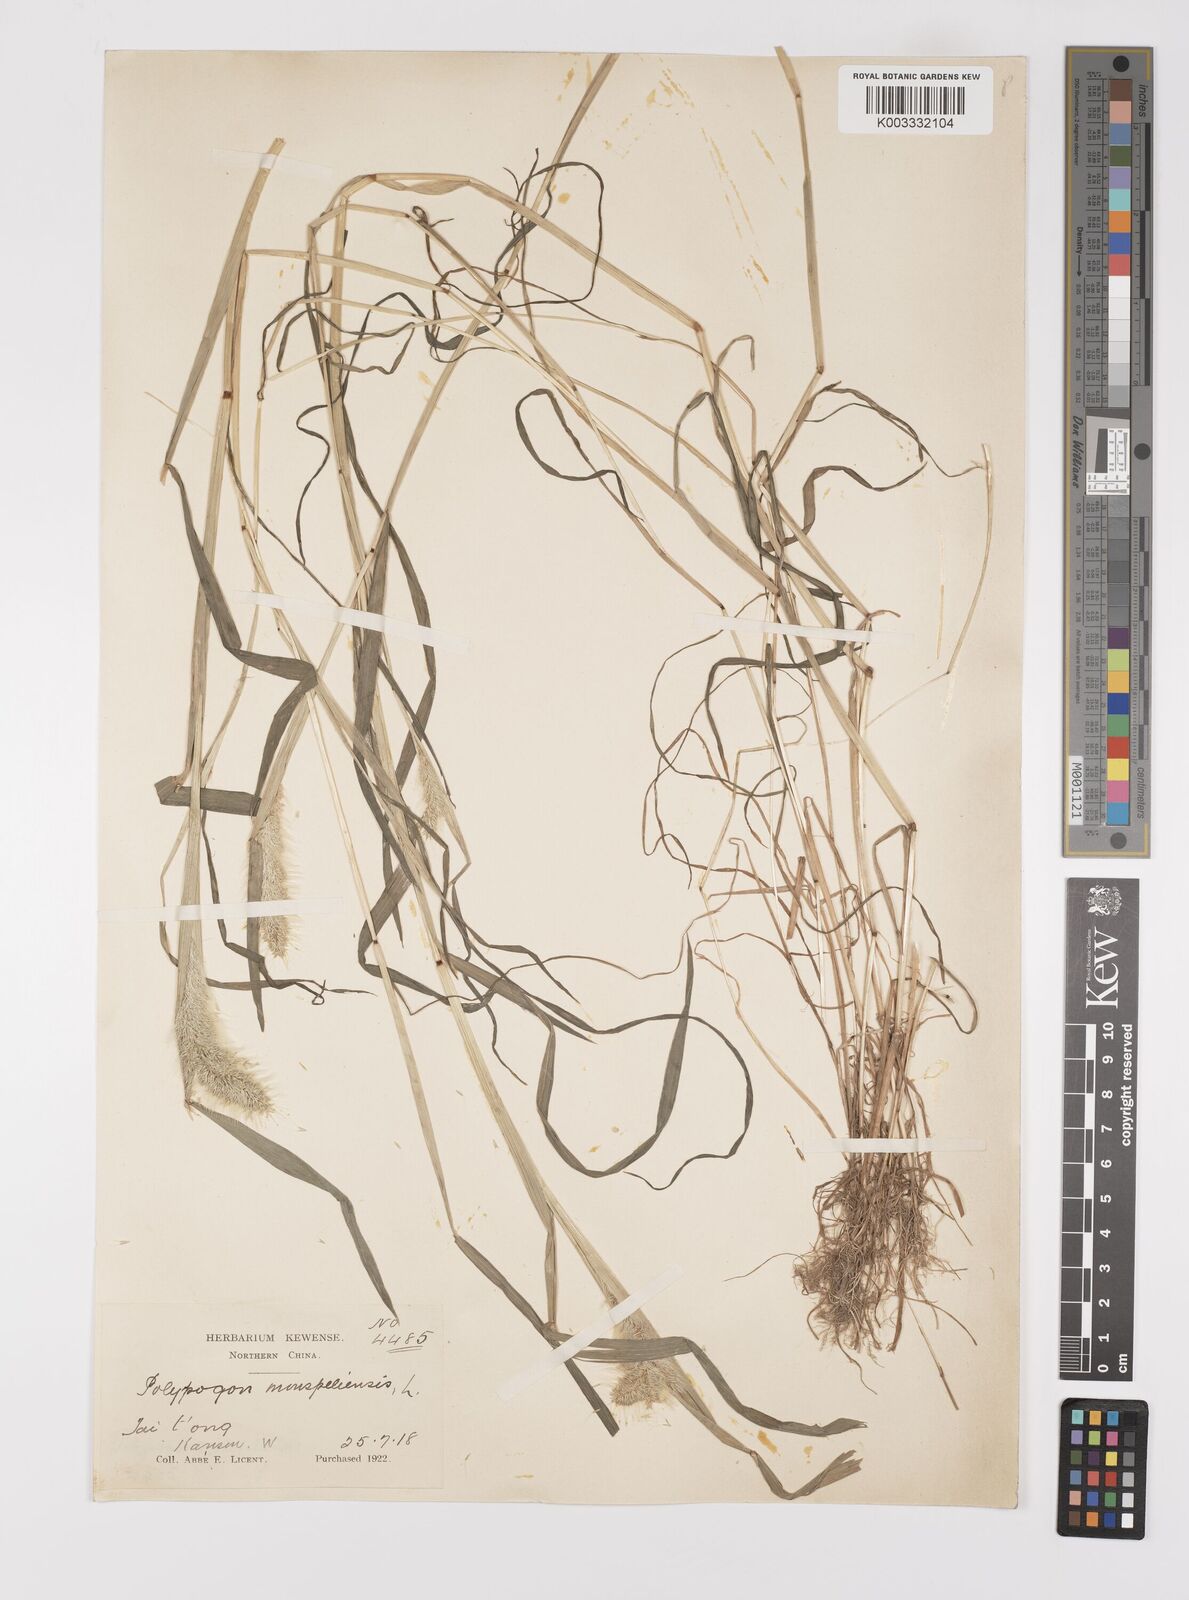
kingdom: Plantae
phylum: Tracheophyta
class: Liliopsida
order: Poales
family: Poaceae
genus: Polypogon
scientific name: Polypogon monspeliensis
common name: Annual rabbitsfoot grass
